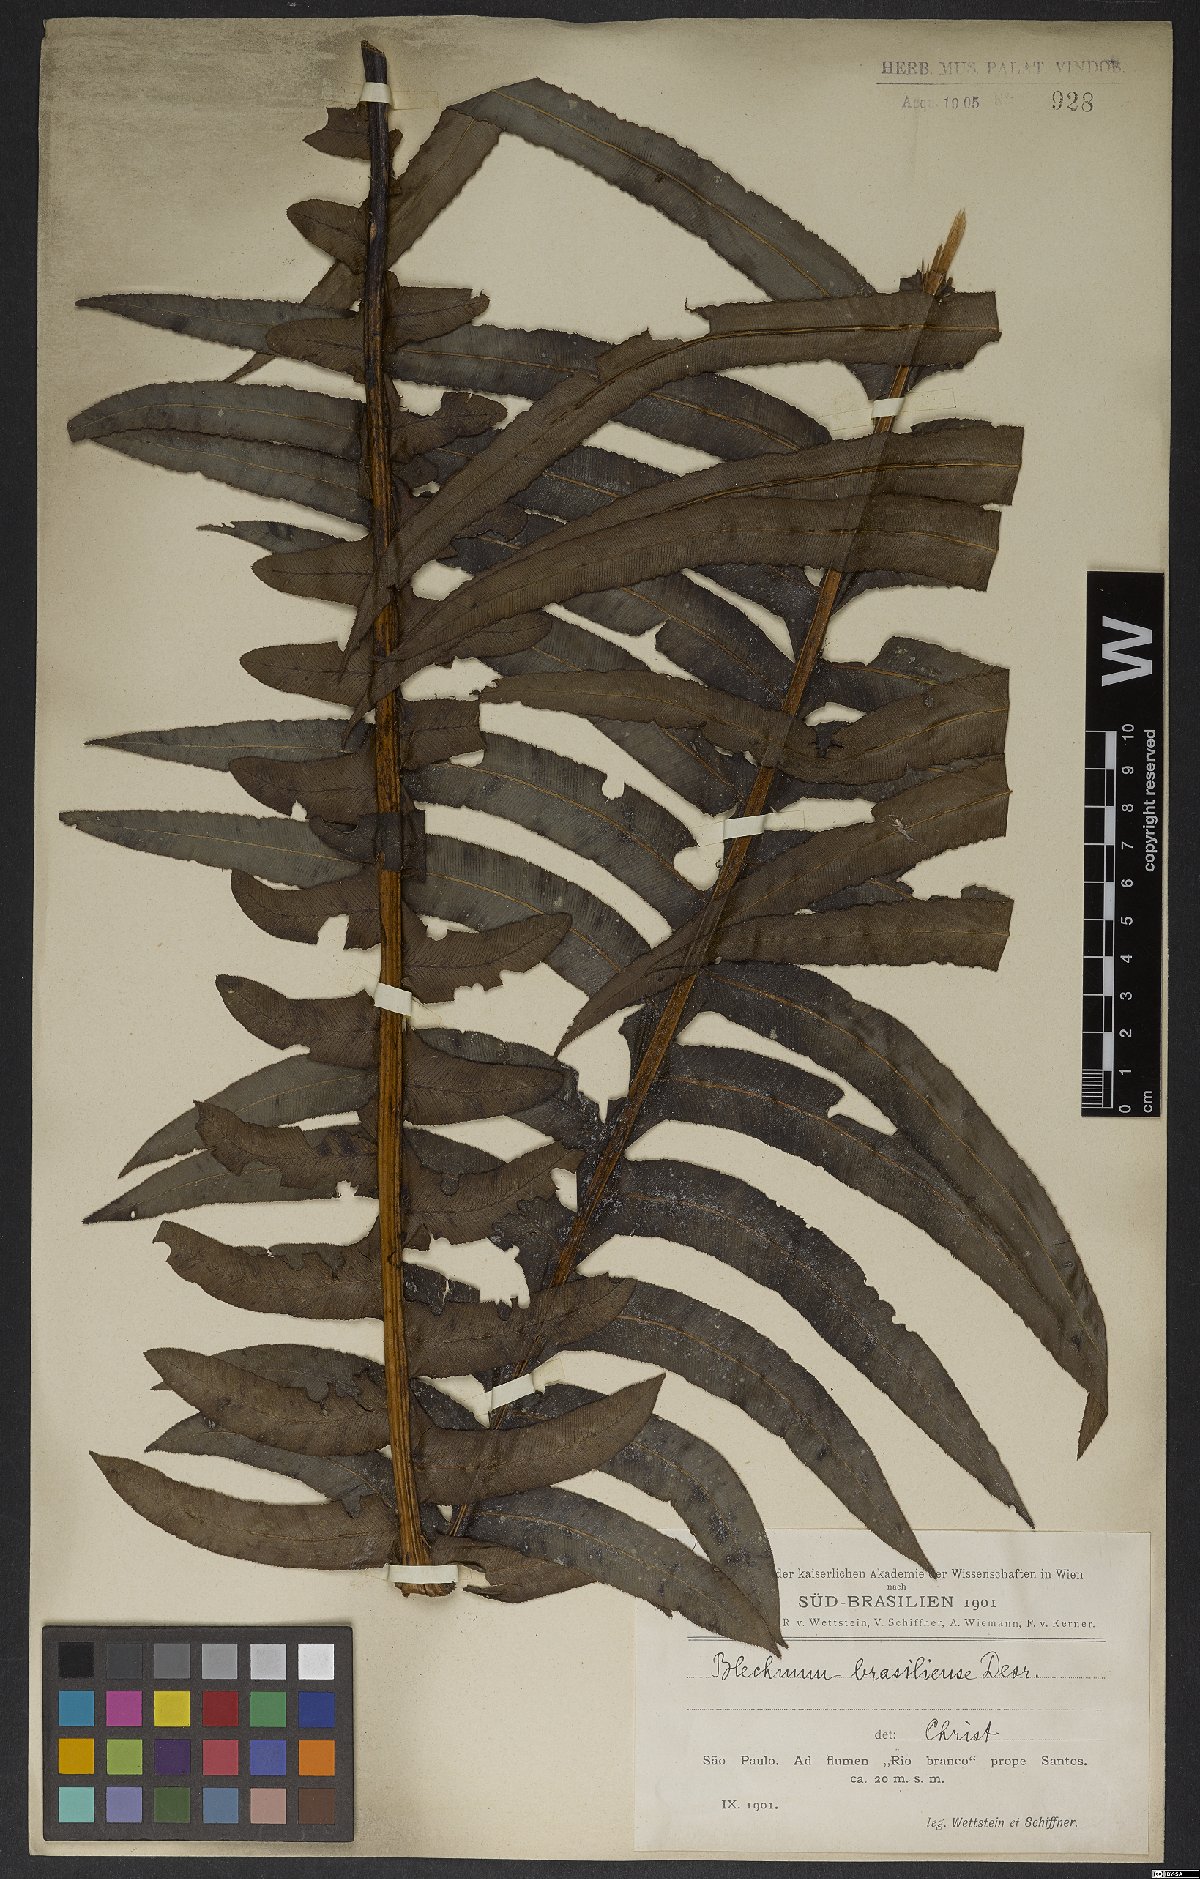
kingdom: Plantae
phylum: Tracheophyta
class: Polypodiopsida
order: Polypodiales
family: Blechnaceae
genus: Neoblechnum
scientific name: Neoblechnum brasiliense
